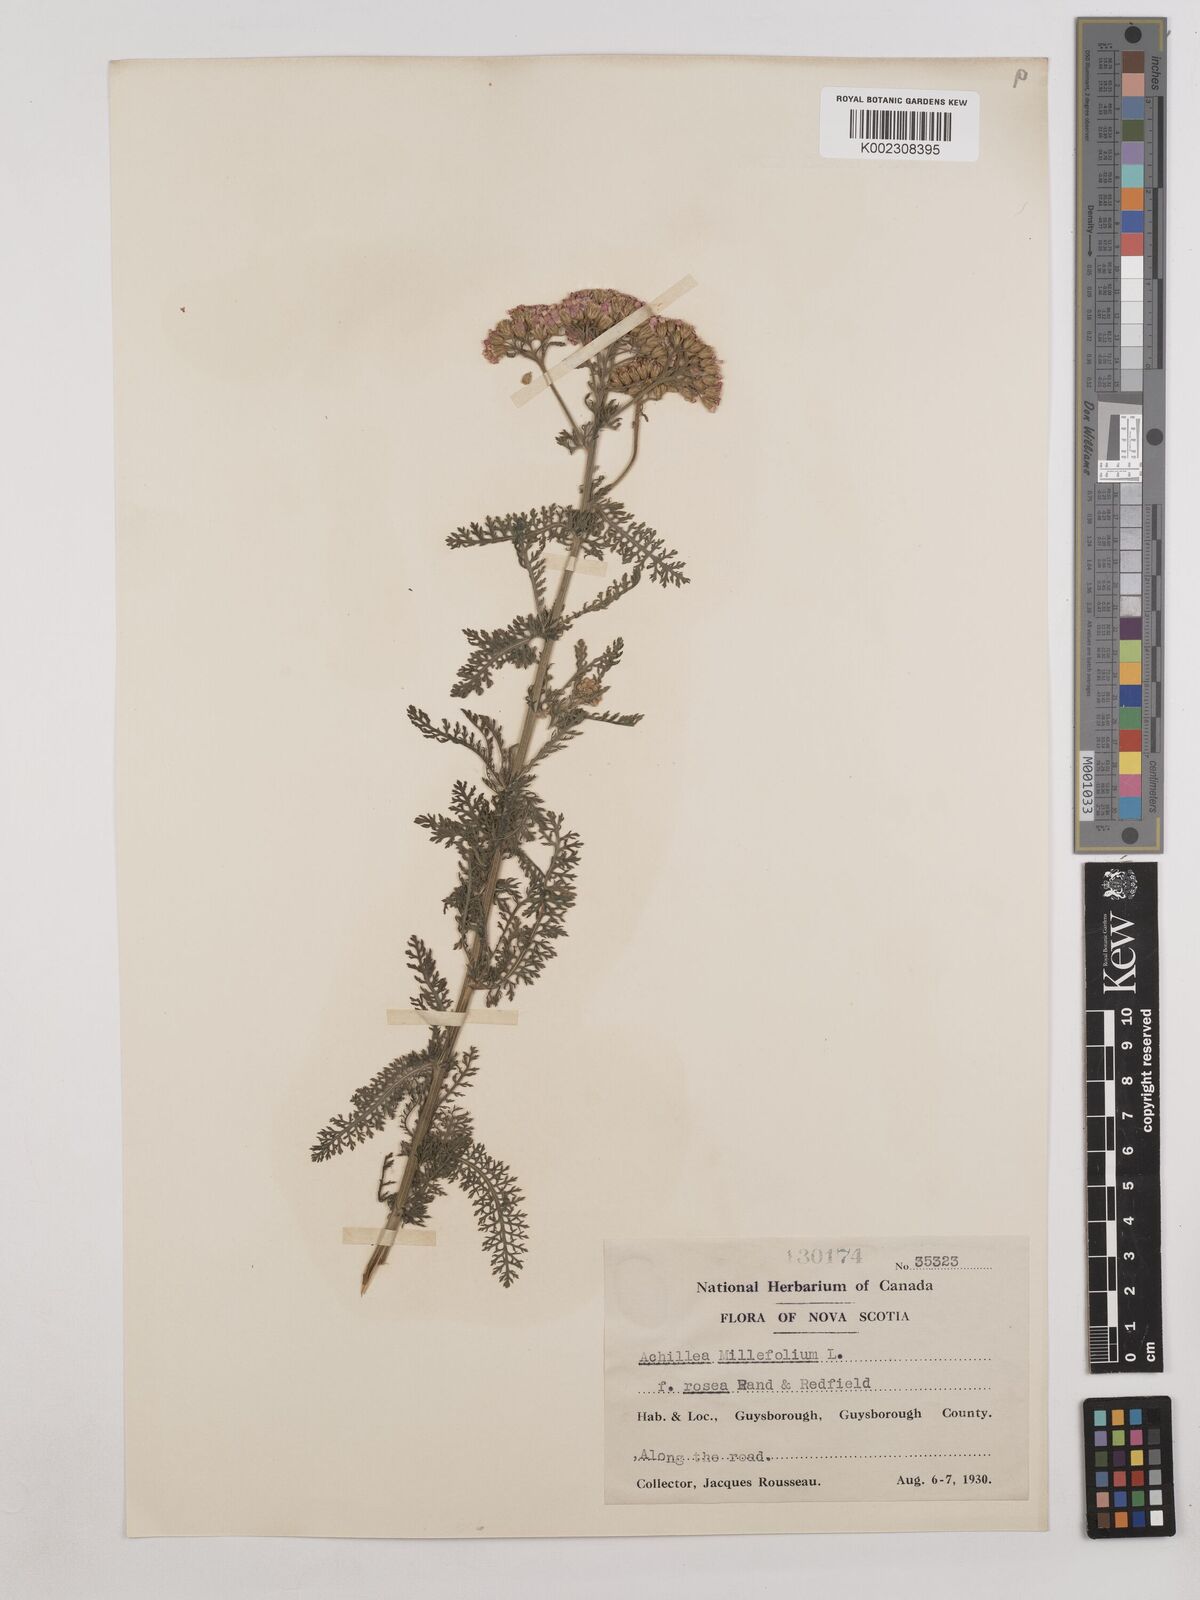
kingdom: Plantae
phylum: Tracheophyta
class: Magnoliopsida
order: Asterales
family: Asteraceae
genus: Achillea
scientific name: Achillea millefolium
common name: Yarrow
